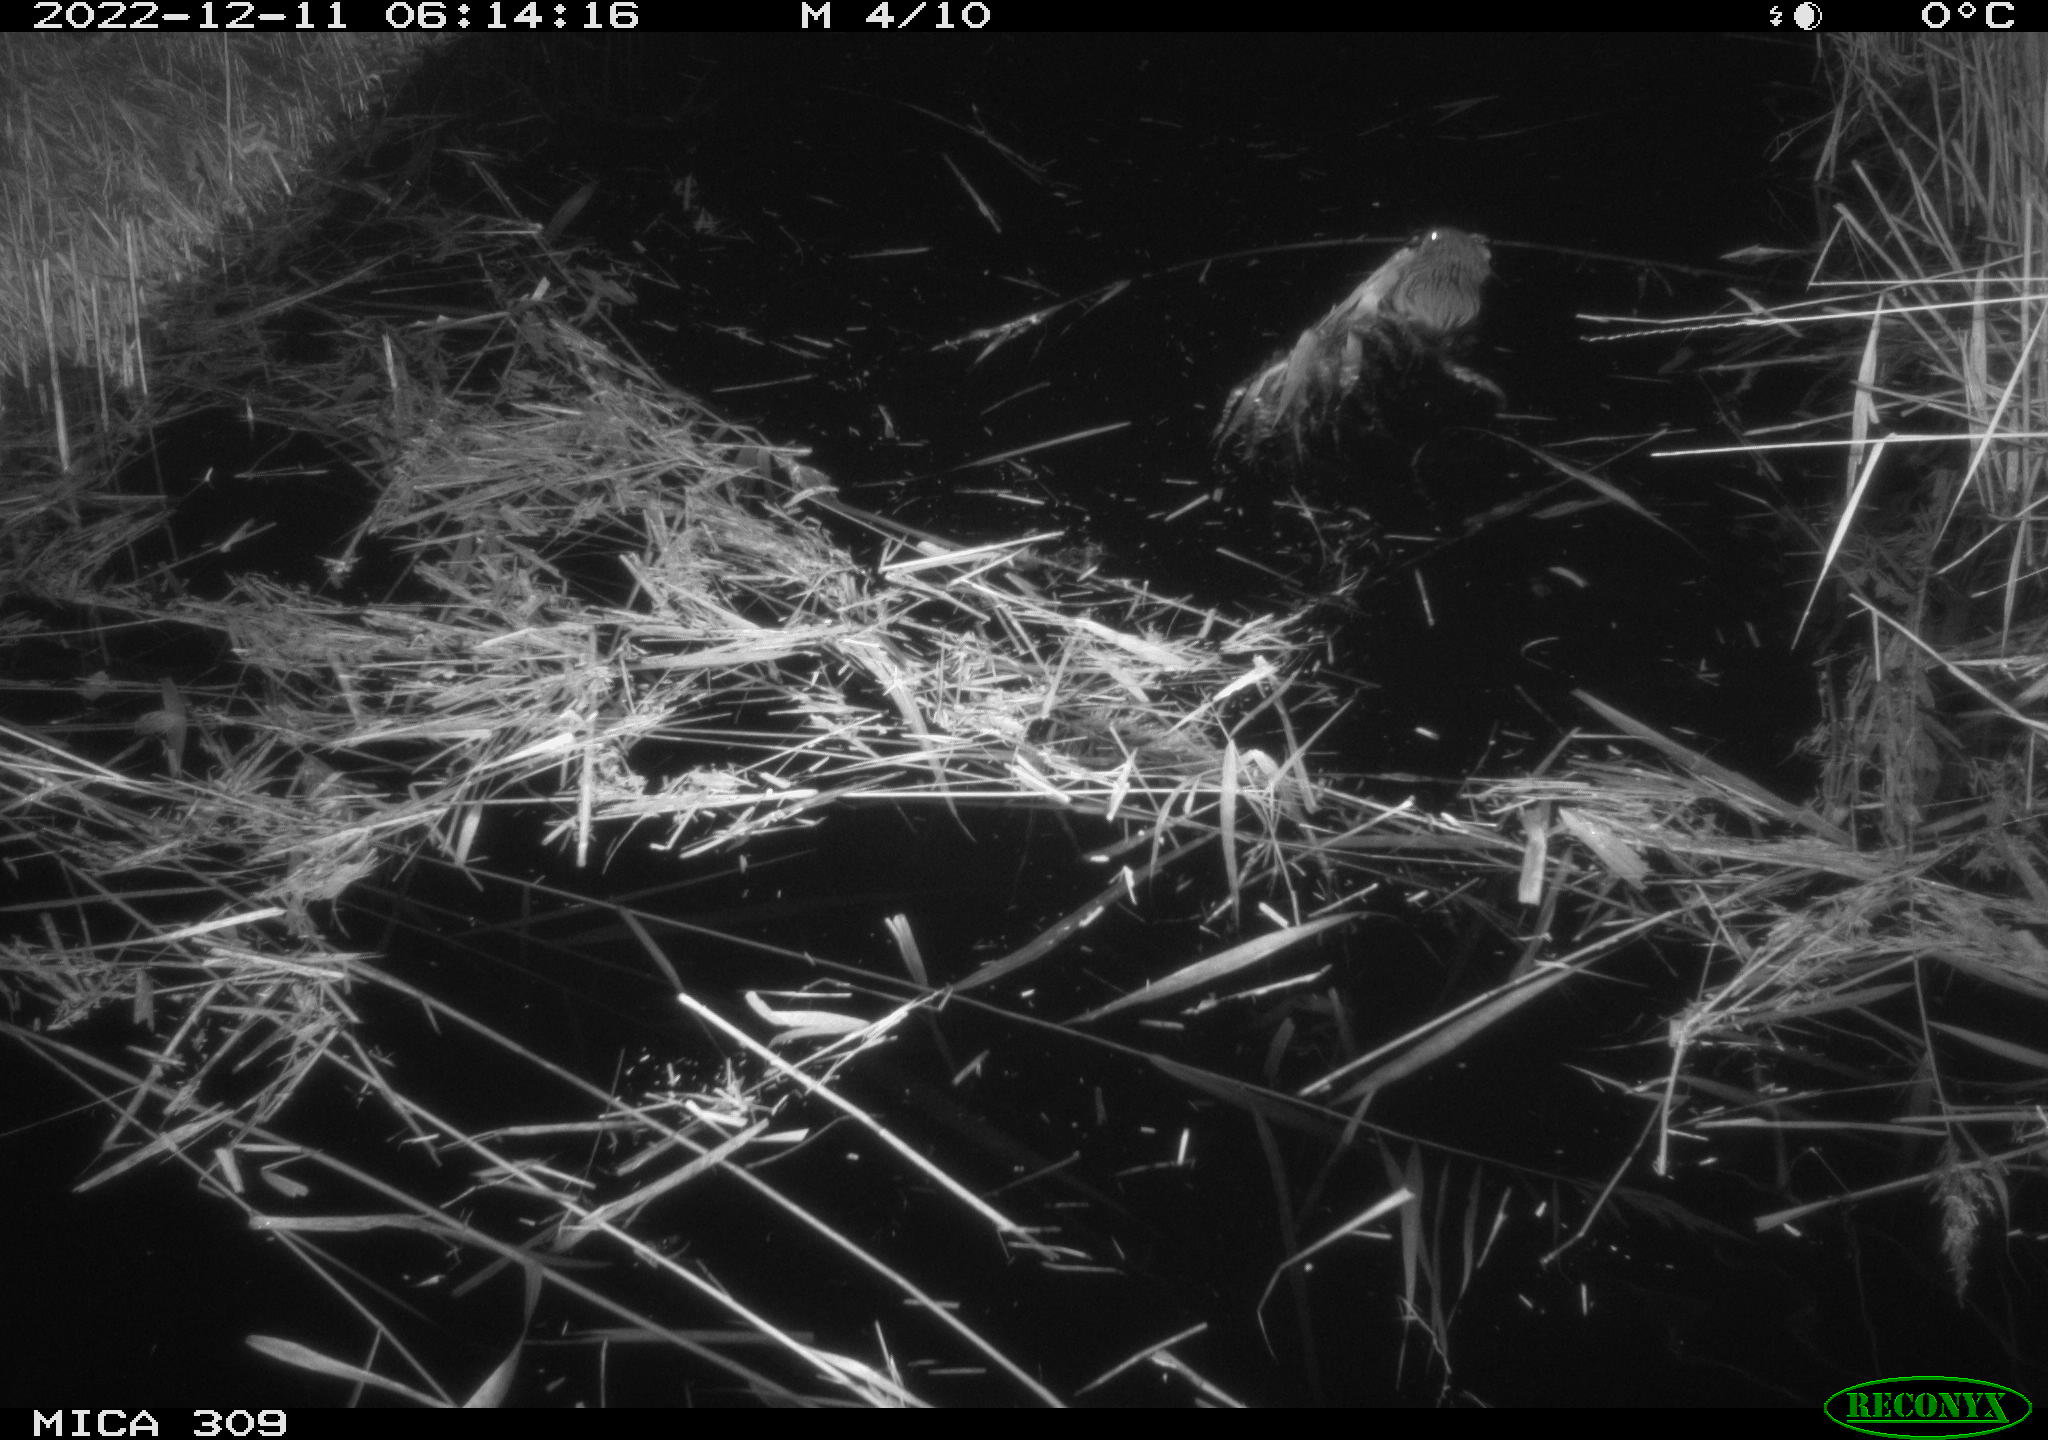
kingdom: Animalia
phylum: Chordata
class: Mammalia
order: Rodentia
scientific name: Rodentia
